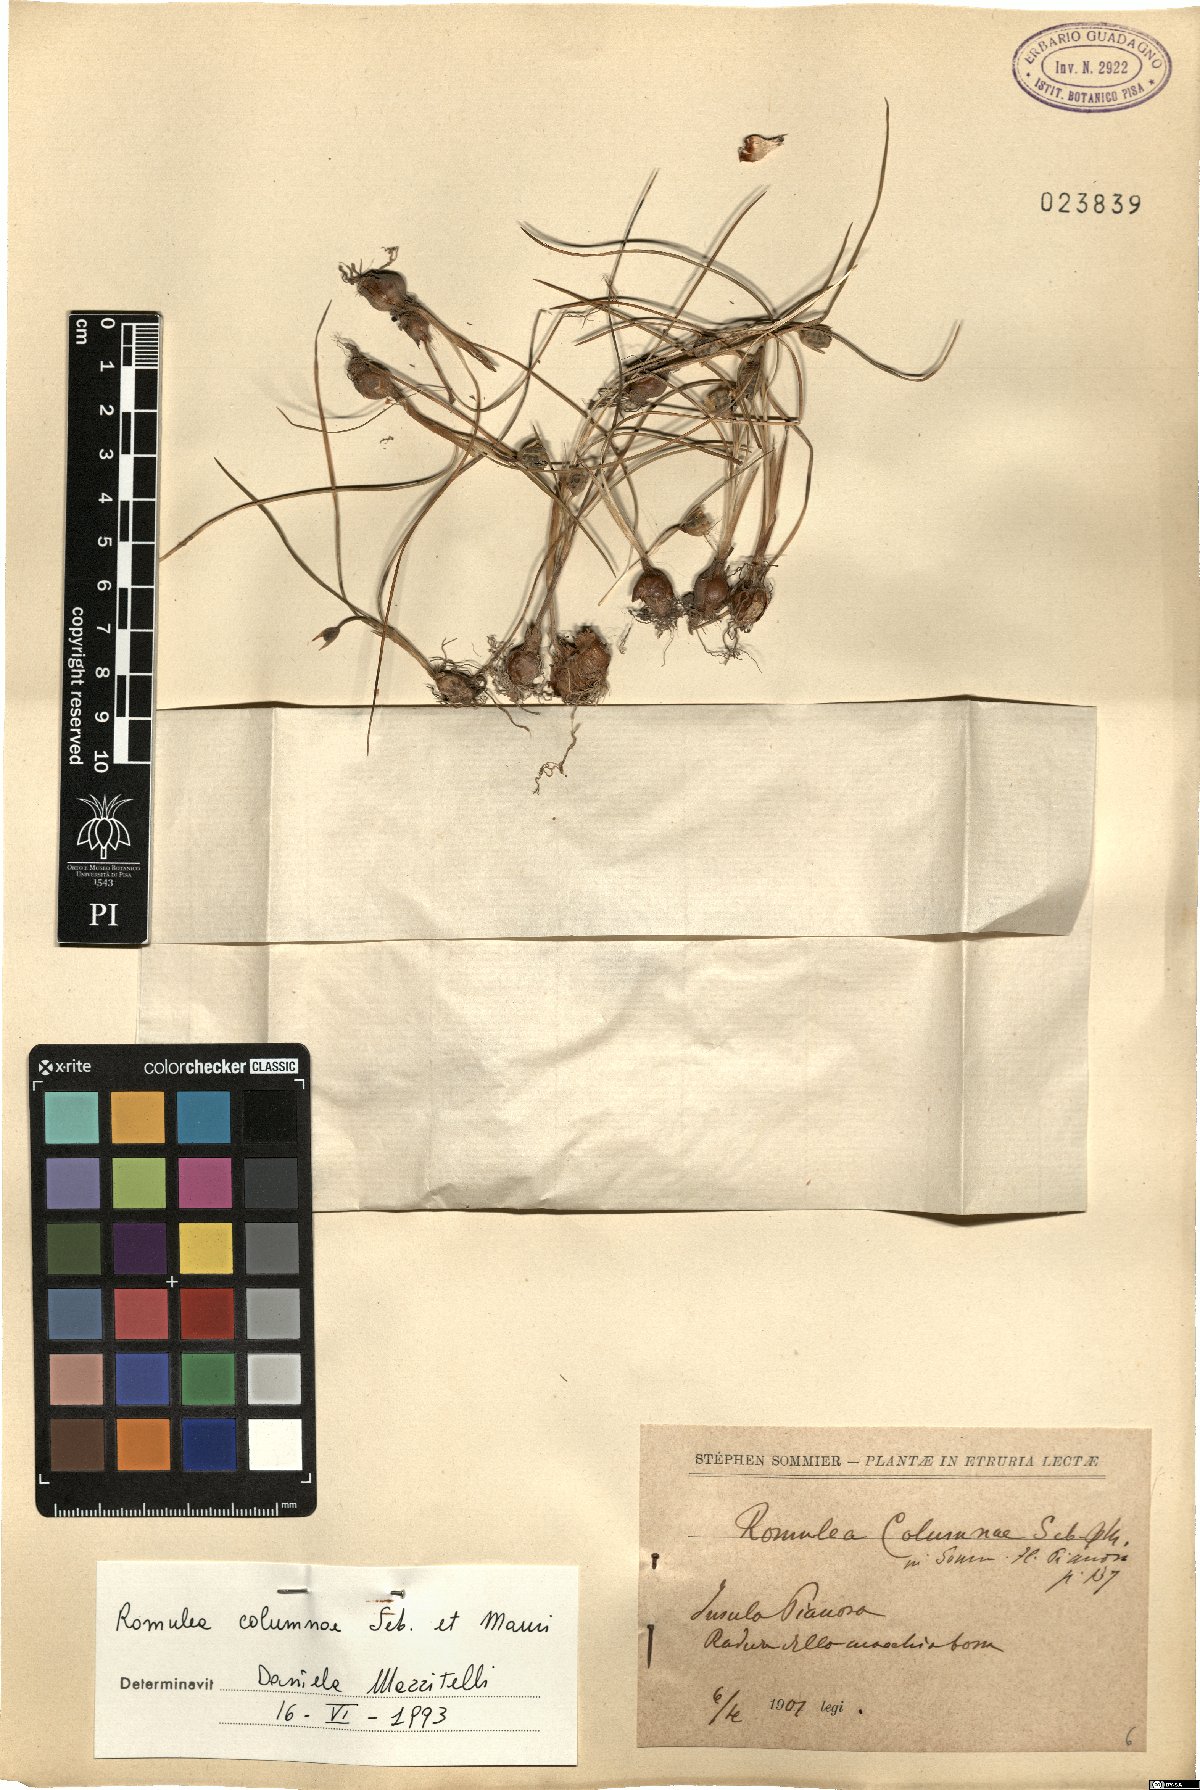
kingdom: Plantae
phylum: Tracheophyta
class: Liliopsida
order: Asparagales
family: Iridaceae
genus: Romulea
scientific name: Romulea columnae
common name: Sand-crocus
